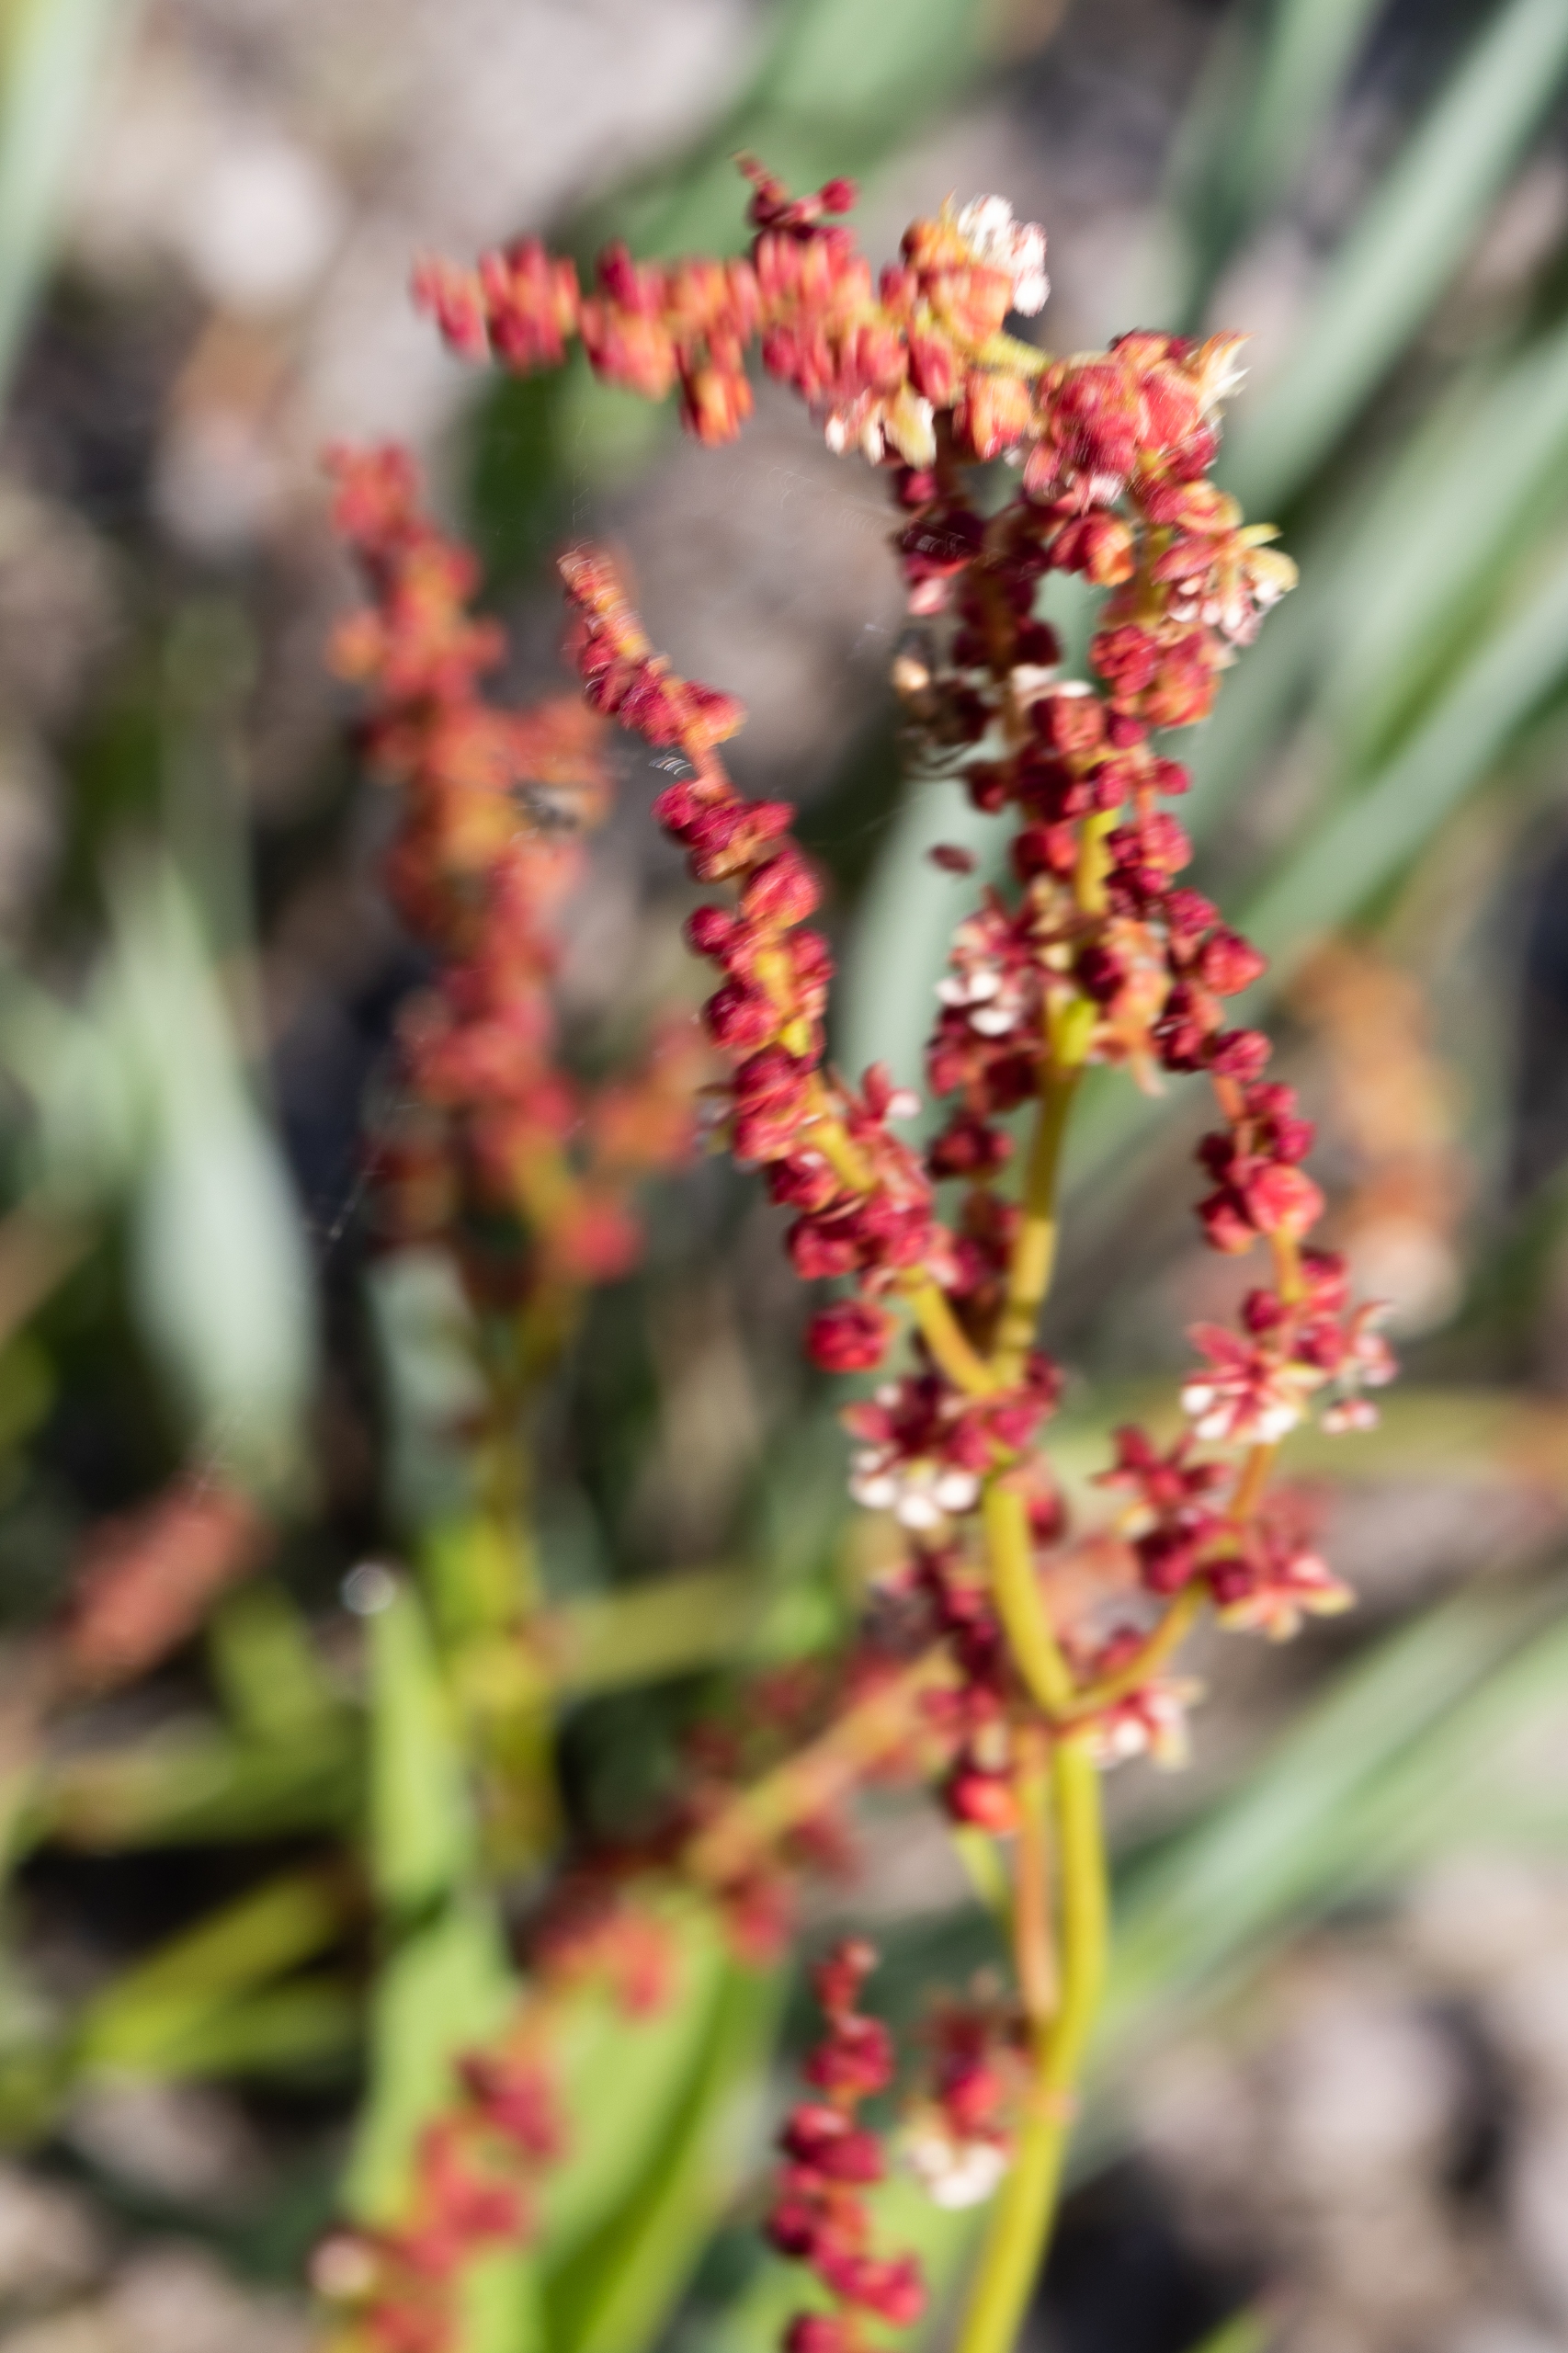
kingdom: Plantae
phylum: Tracheophyta
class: Magnoliopsida
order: Caryophyllales
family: Polygonaceae
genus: Rumex
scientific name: Rumex acetosella
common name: Rødknæ
